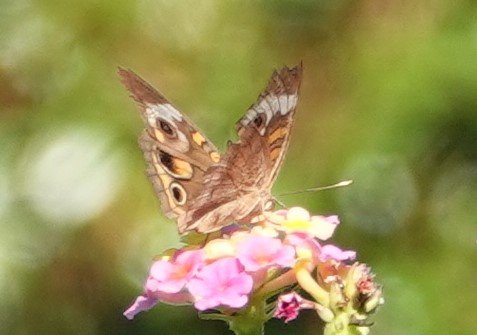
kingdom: Animalia
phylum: Arthropoda
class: Insecta
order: Lepidoptera
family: Nymphalidae
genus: Junonia
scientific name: Junonia coenia
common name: Common Buckeye
